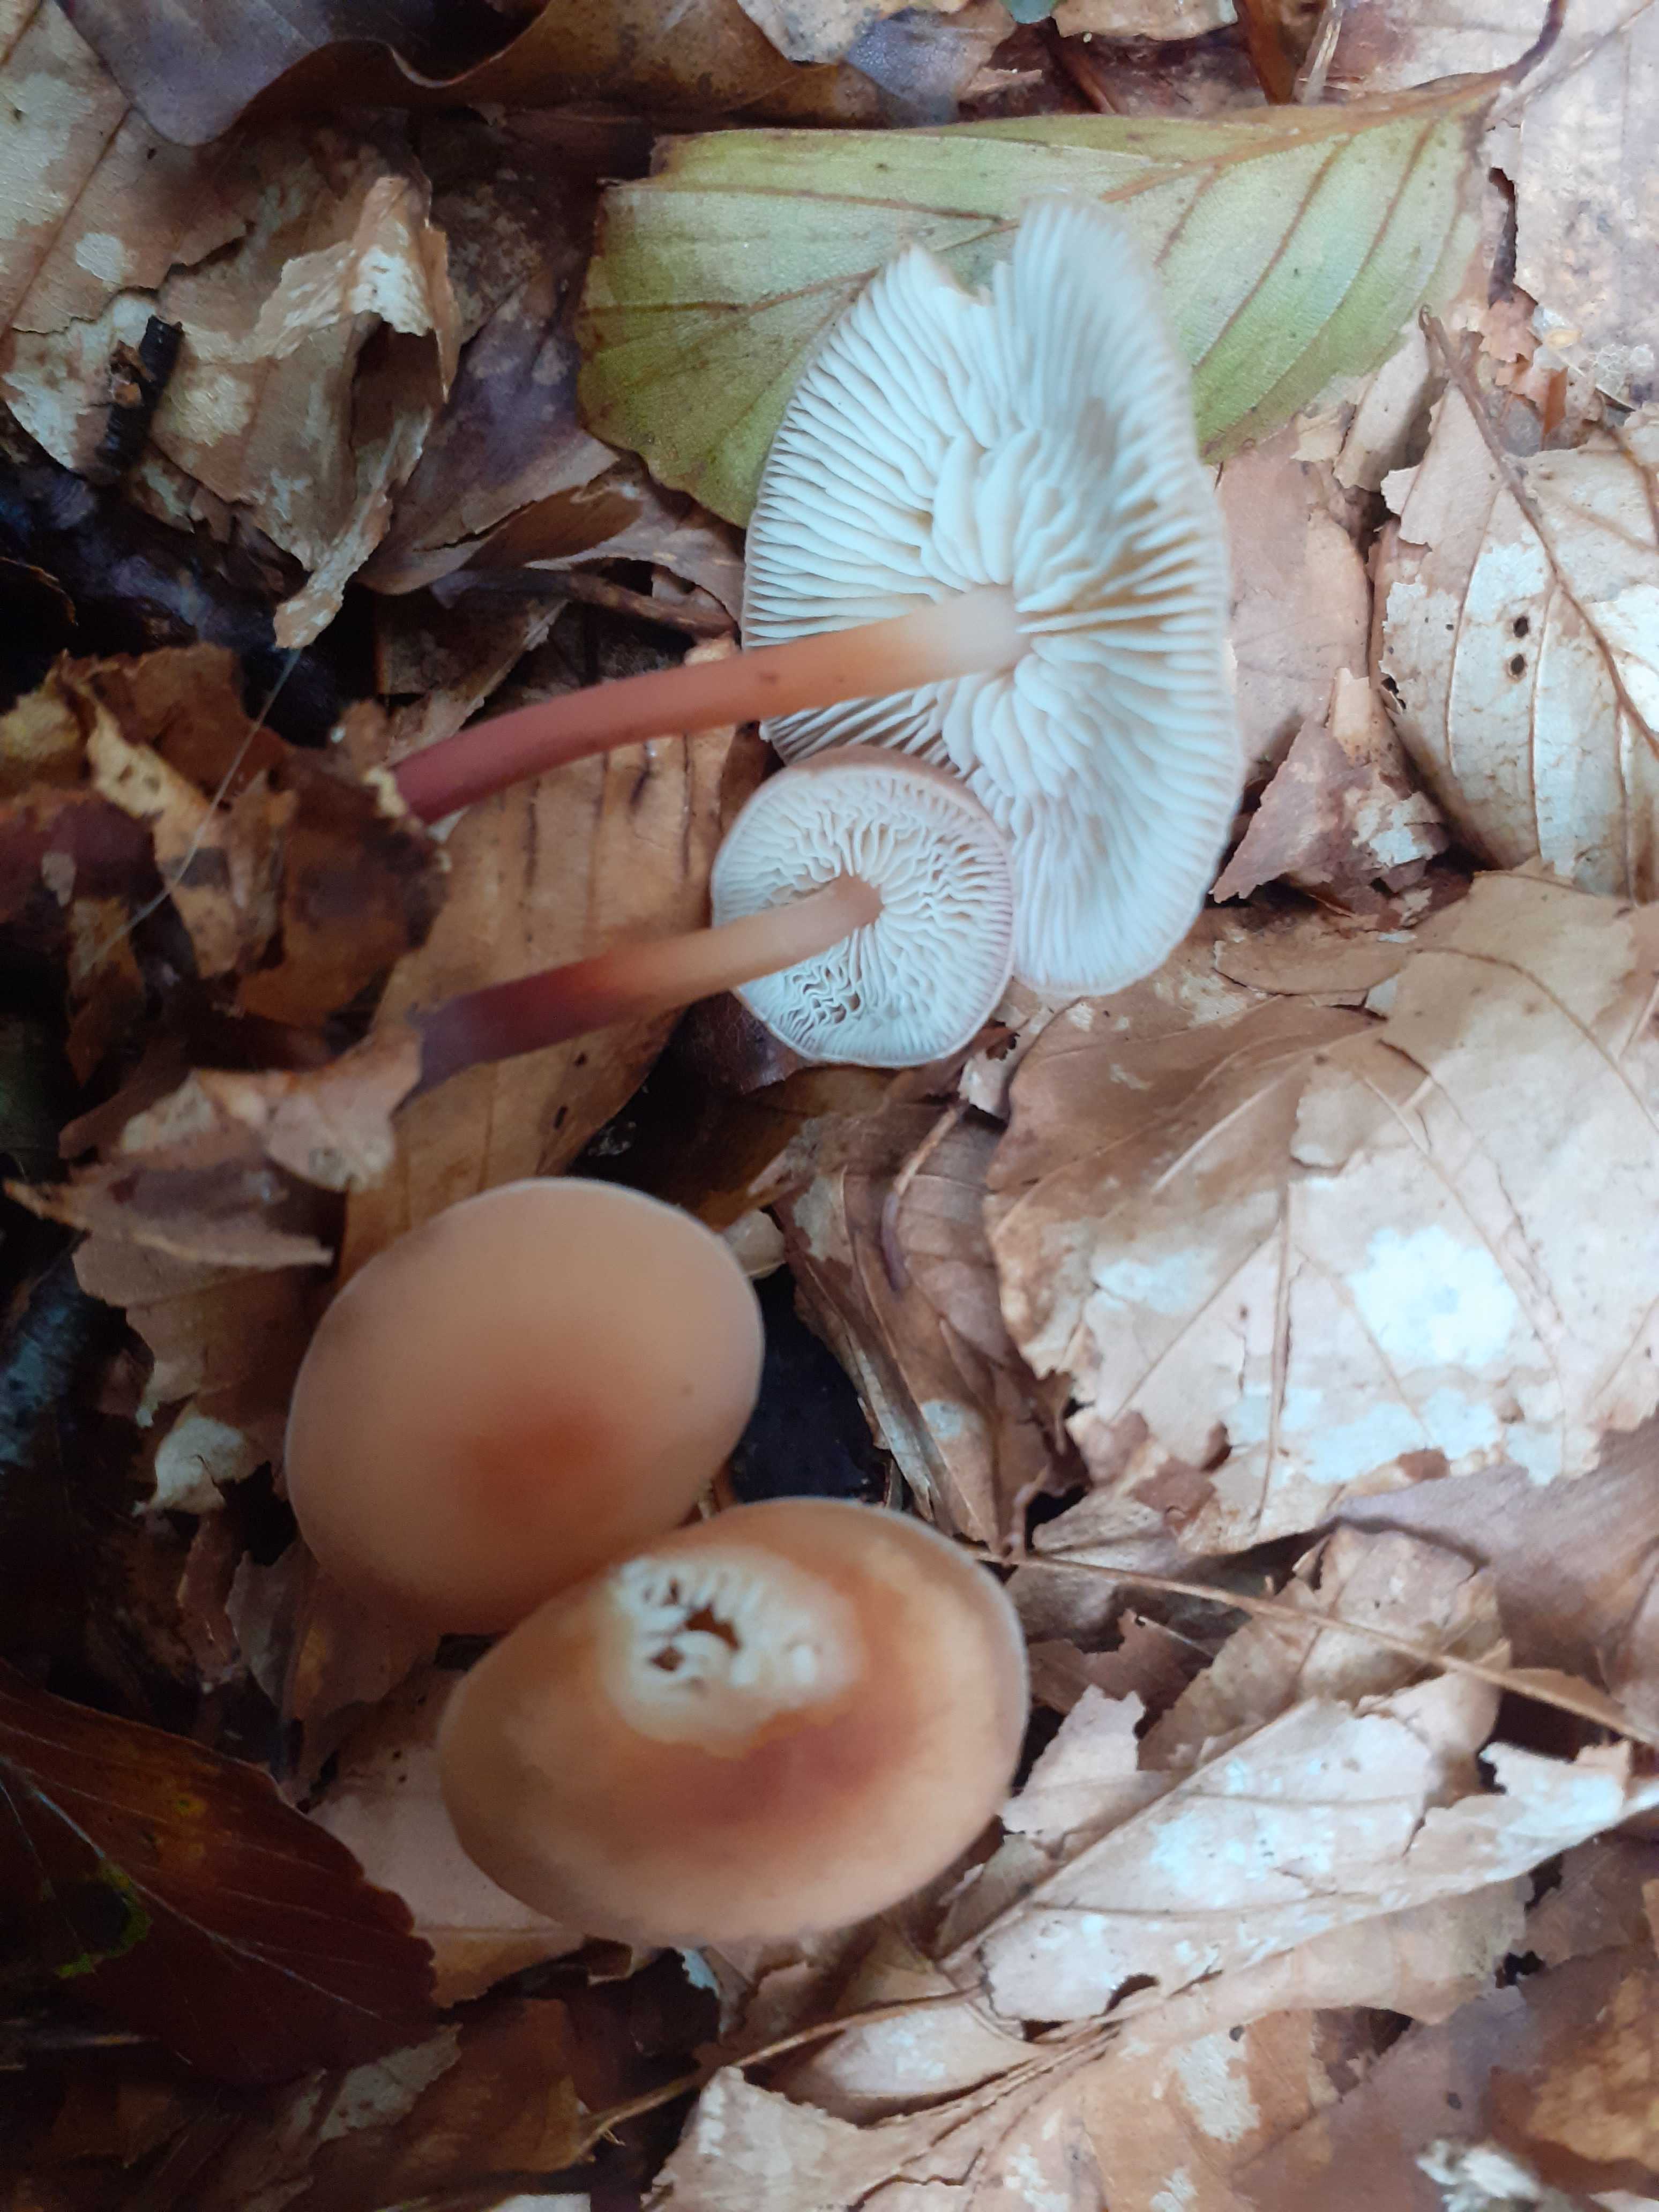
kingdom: Fungi
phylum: Basidiomycota
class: Agaricomycetes
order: Agaricales
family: Omphalotaceae
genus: Gymnopus
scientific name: Gymnopus erythropus
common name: rødstokket fladhat
